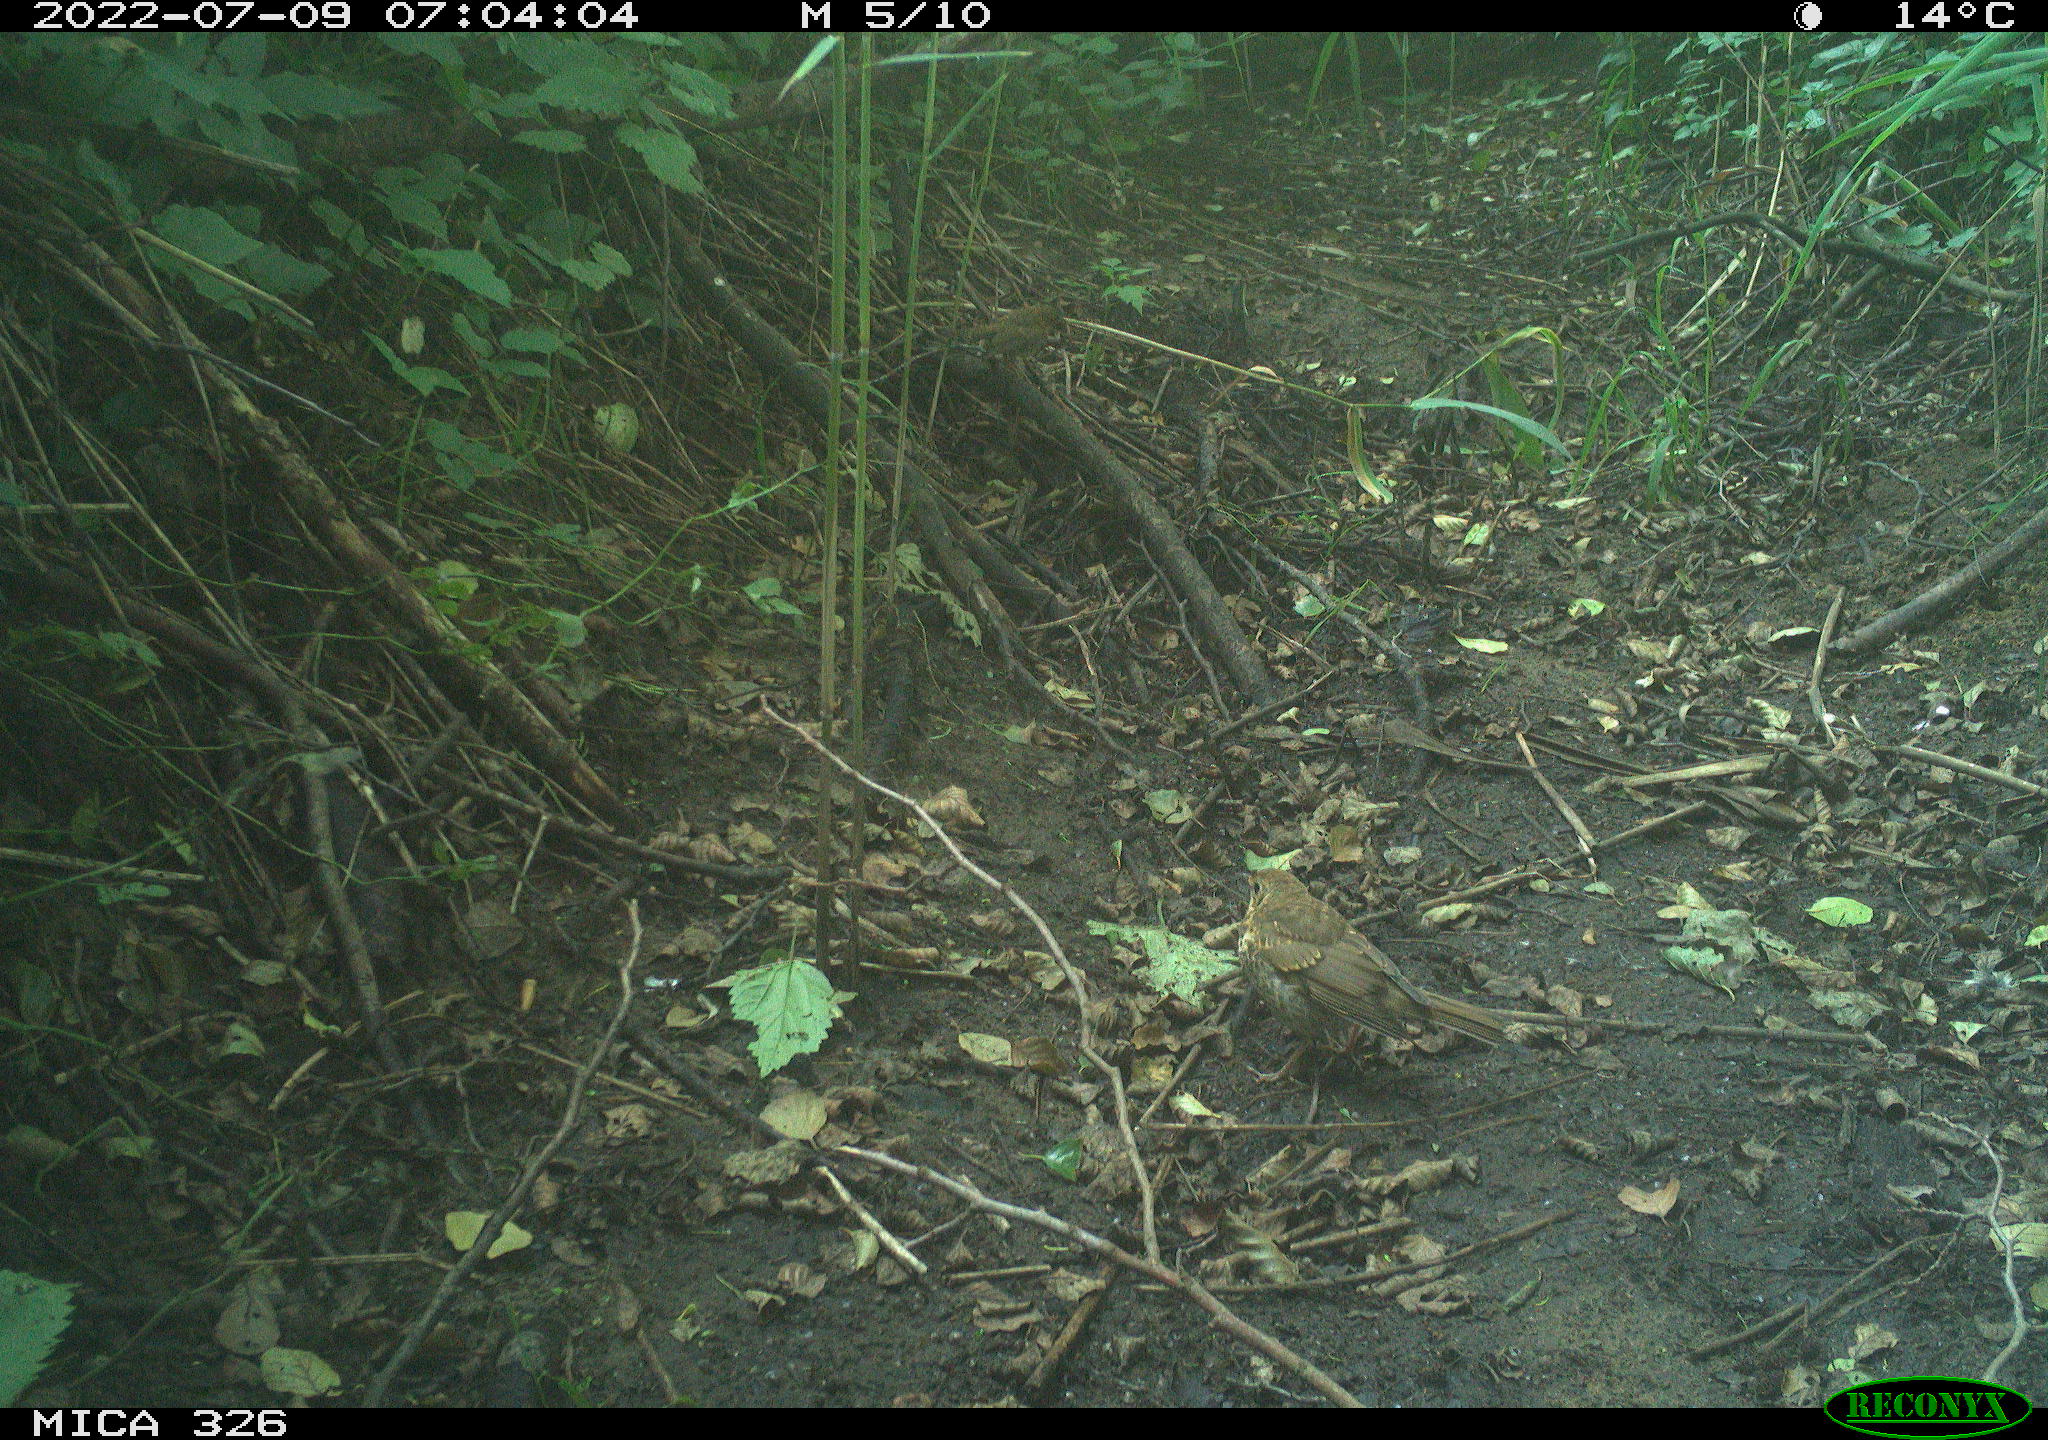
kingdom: Animalia
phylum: Chordata
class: Aves
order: Passeriformes
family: Turdidae
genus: Turdus
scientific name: Turdus philomelos
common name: Song thrush
